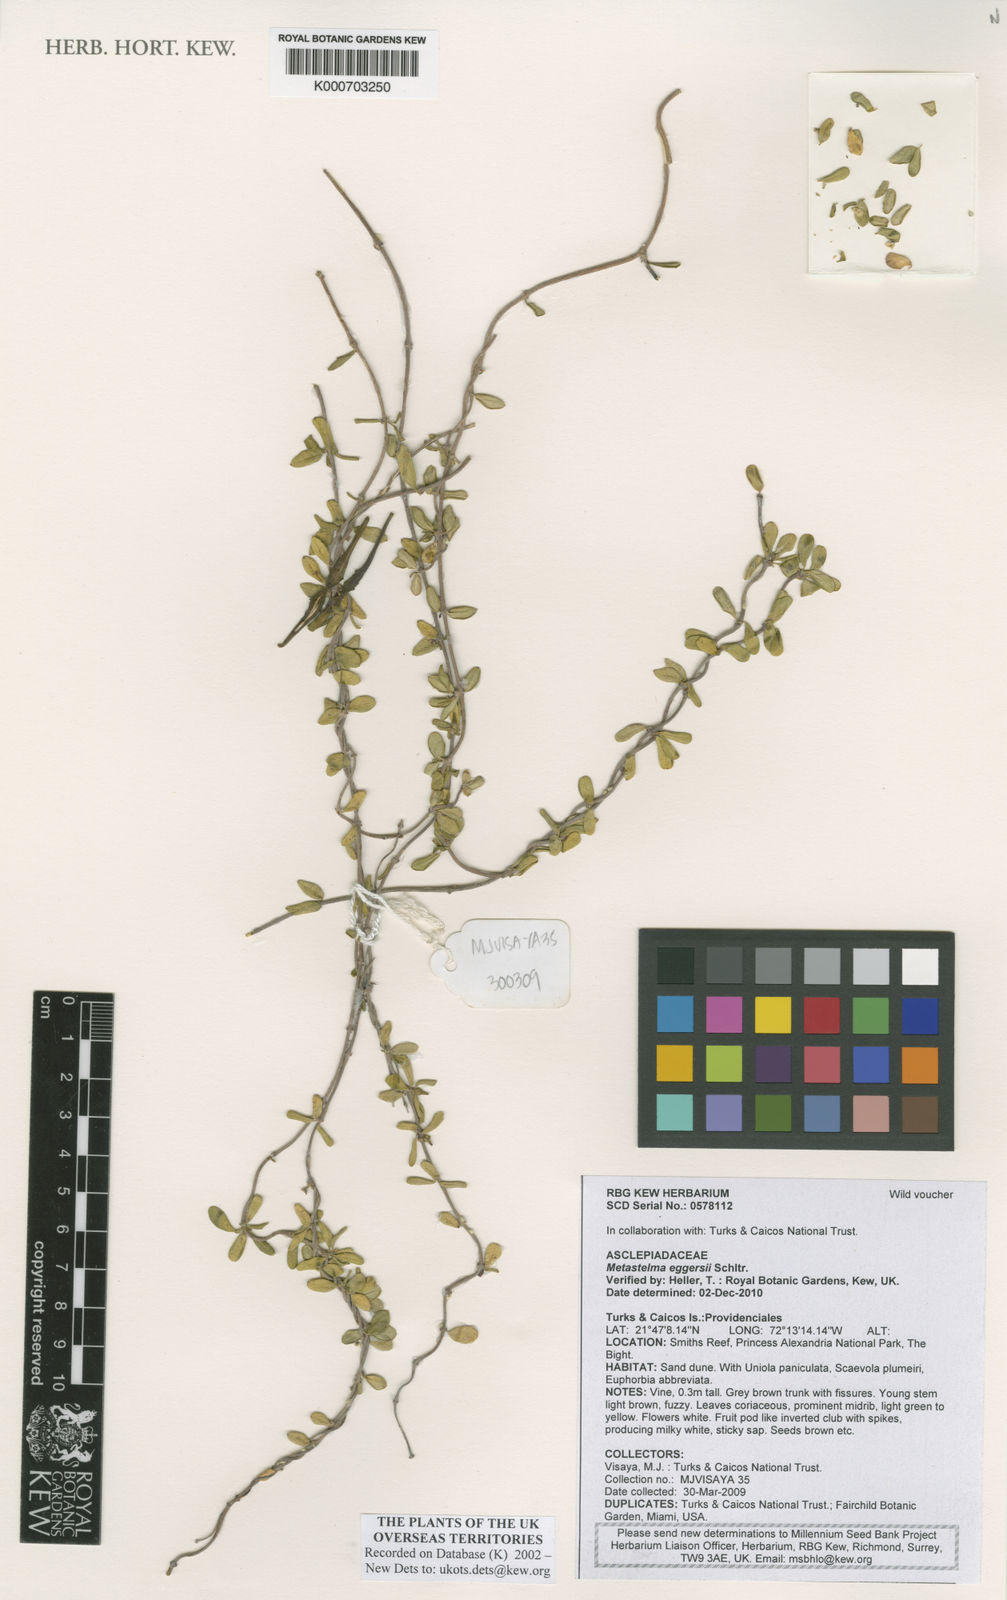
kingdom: Plantae
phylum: Tracheophyta
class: Magnoliopsida
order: Gentianales
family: Apocynaceae
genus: Anemotrochus
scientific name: Anemotrochus eggersii
